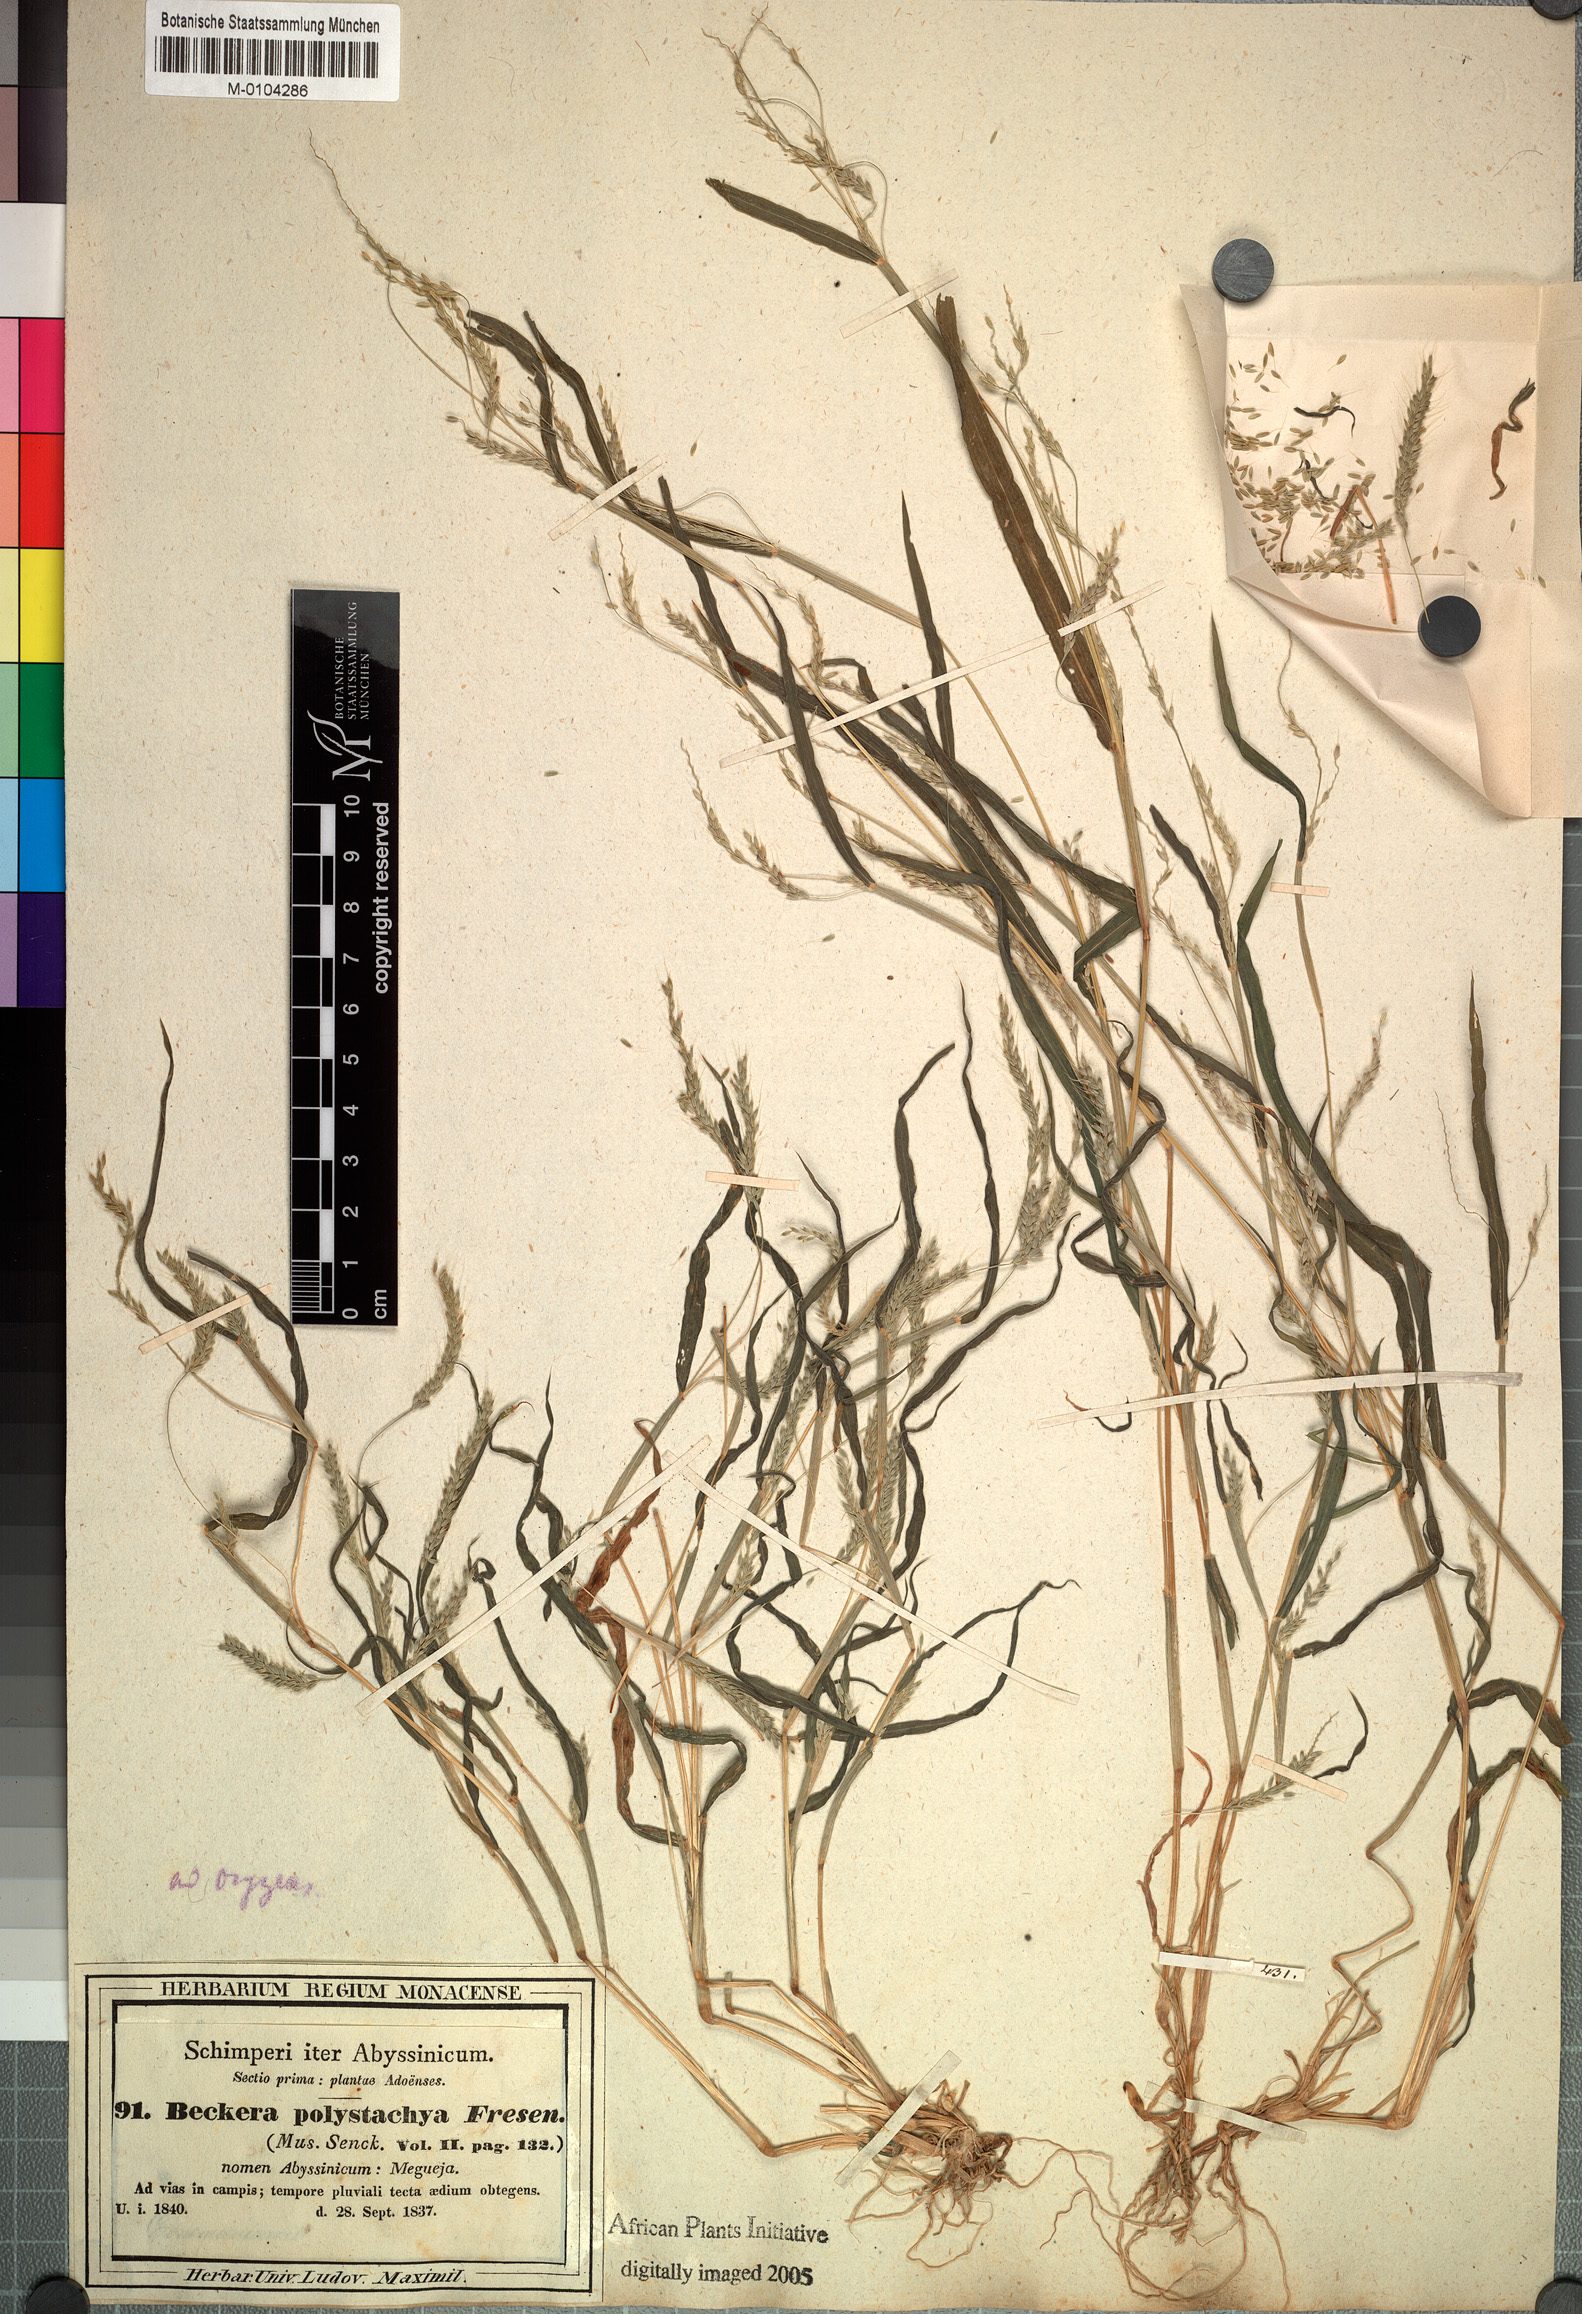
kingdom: Plantae
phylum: Tracheophyta
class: Liliopsida
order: Poales
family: Poaceae
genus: Snowdenia
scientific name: Snowdenia polystachya
